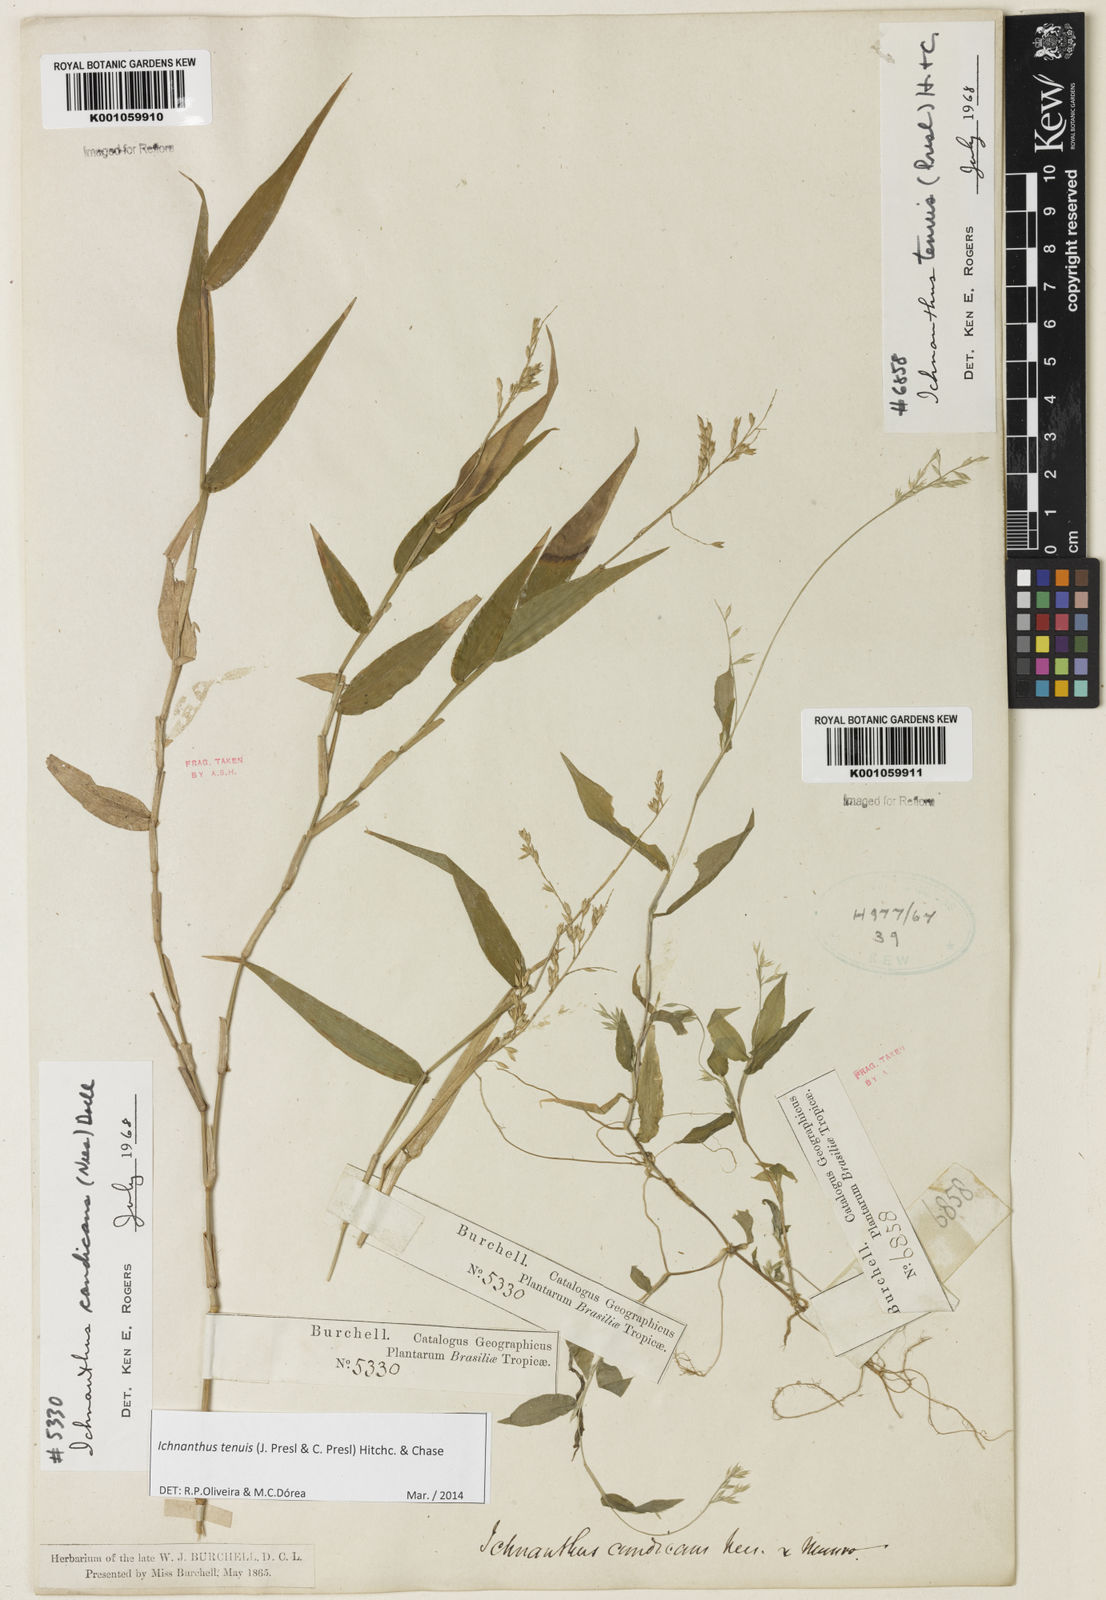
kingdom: Plantae
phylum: Tracheophyta
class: Liliopsida
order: Poales
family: Poaceae
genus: Ichnanthus
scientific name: Ichnanthus tenuis
